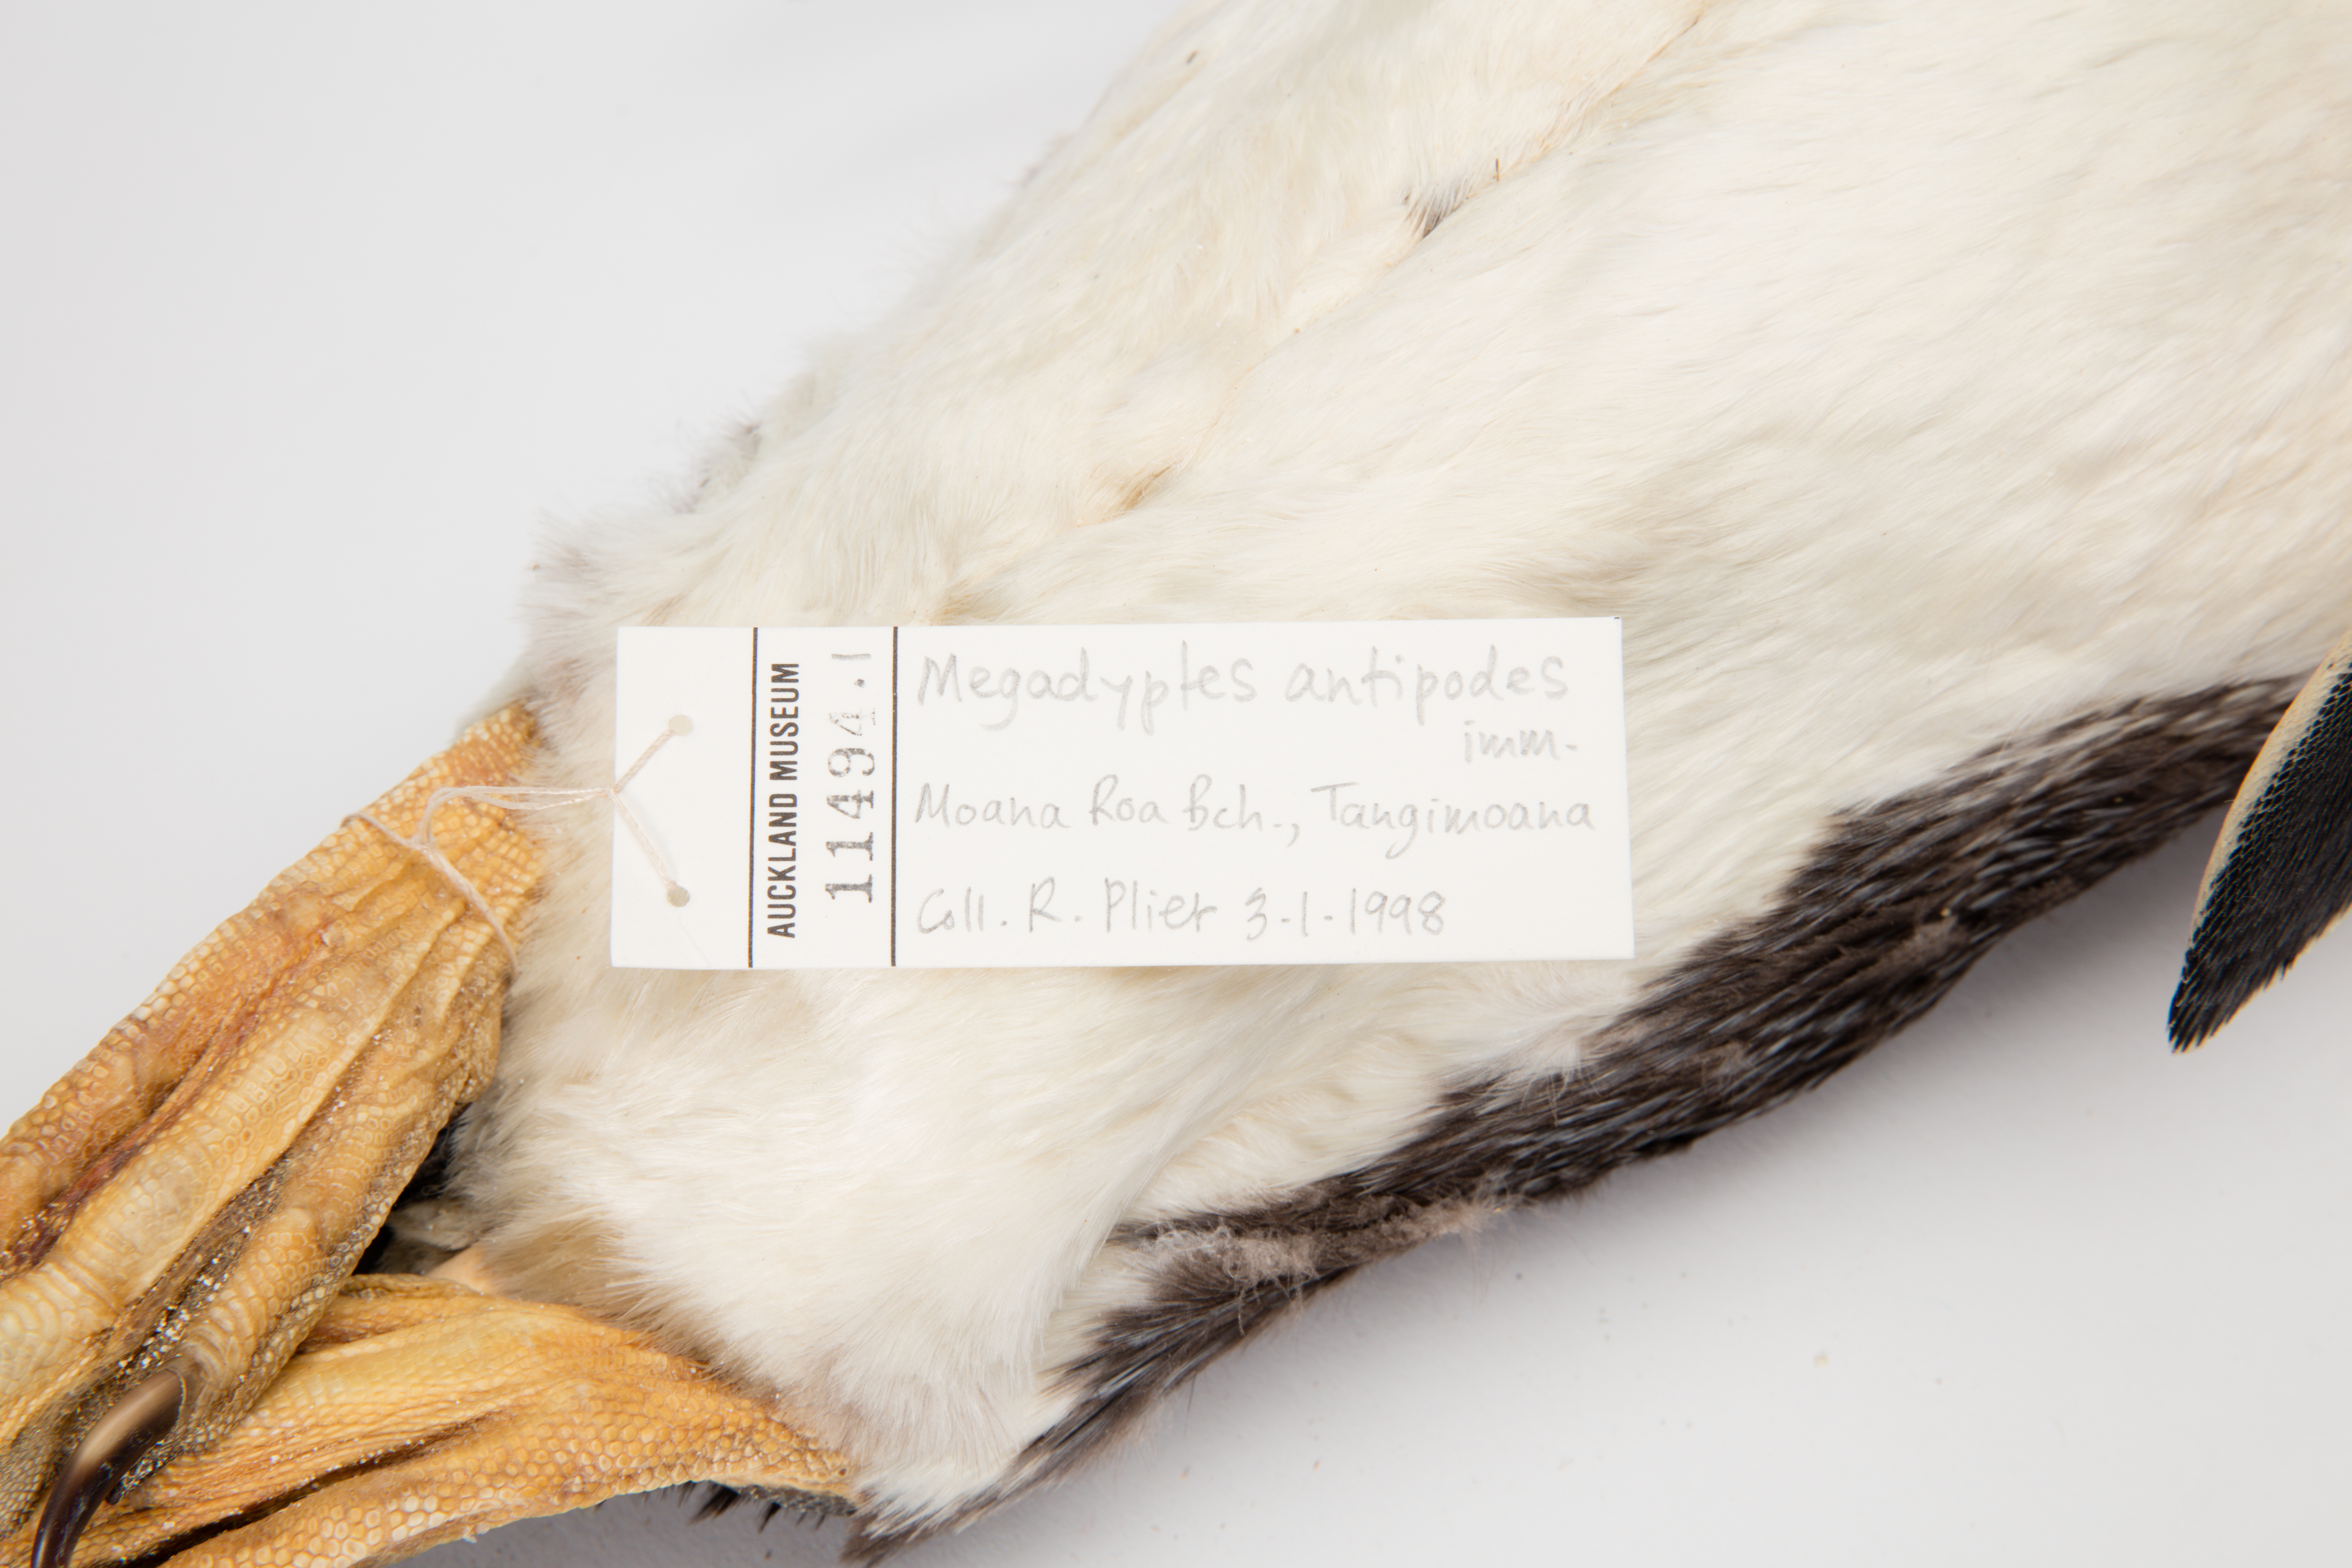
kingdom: Animalia
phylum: Chordata
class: Aves
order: Sphenisciformes
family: Spheniscidae
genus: Megadyptes
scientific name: Megadyptes antipodes
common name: Yellow-eyed penguin
